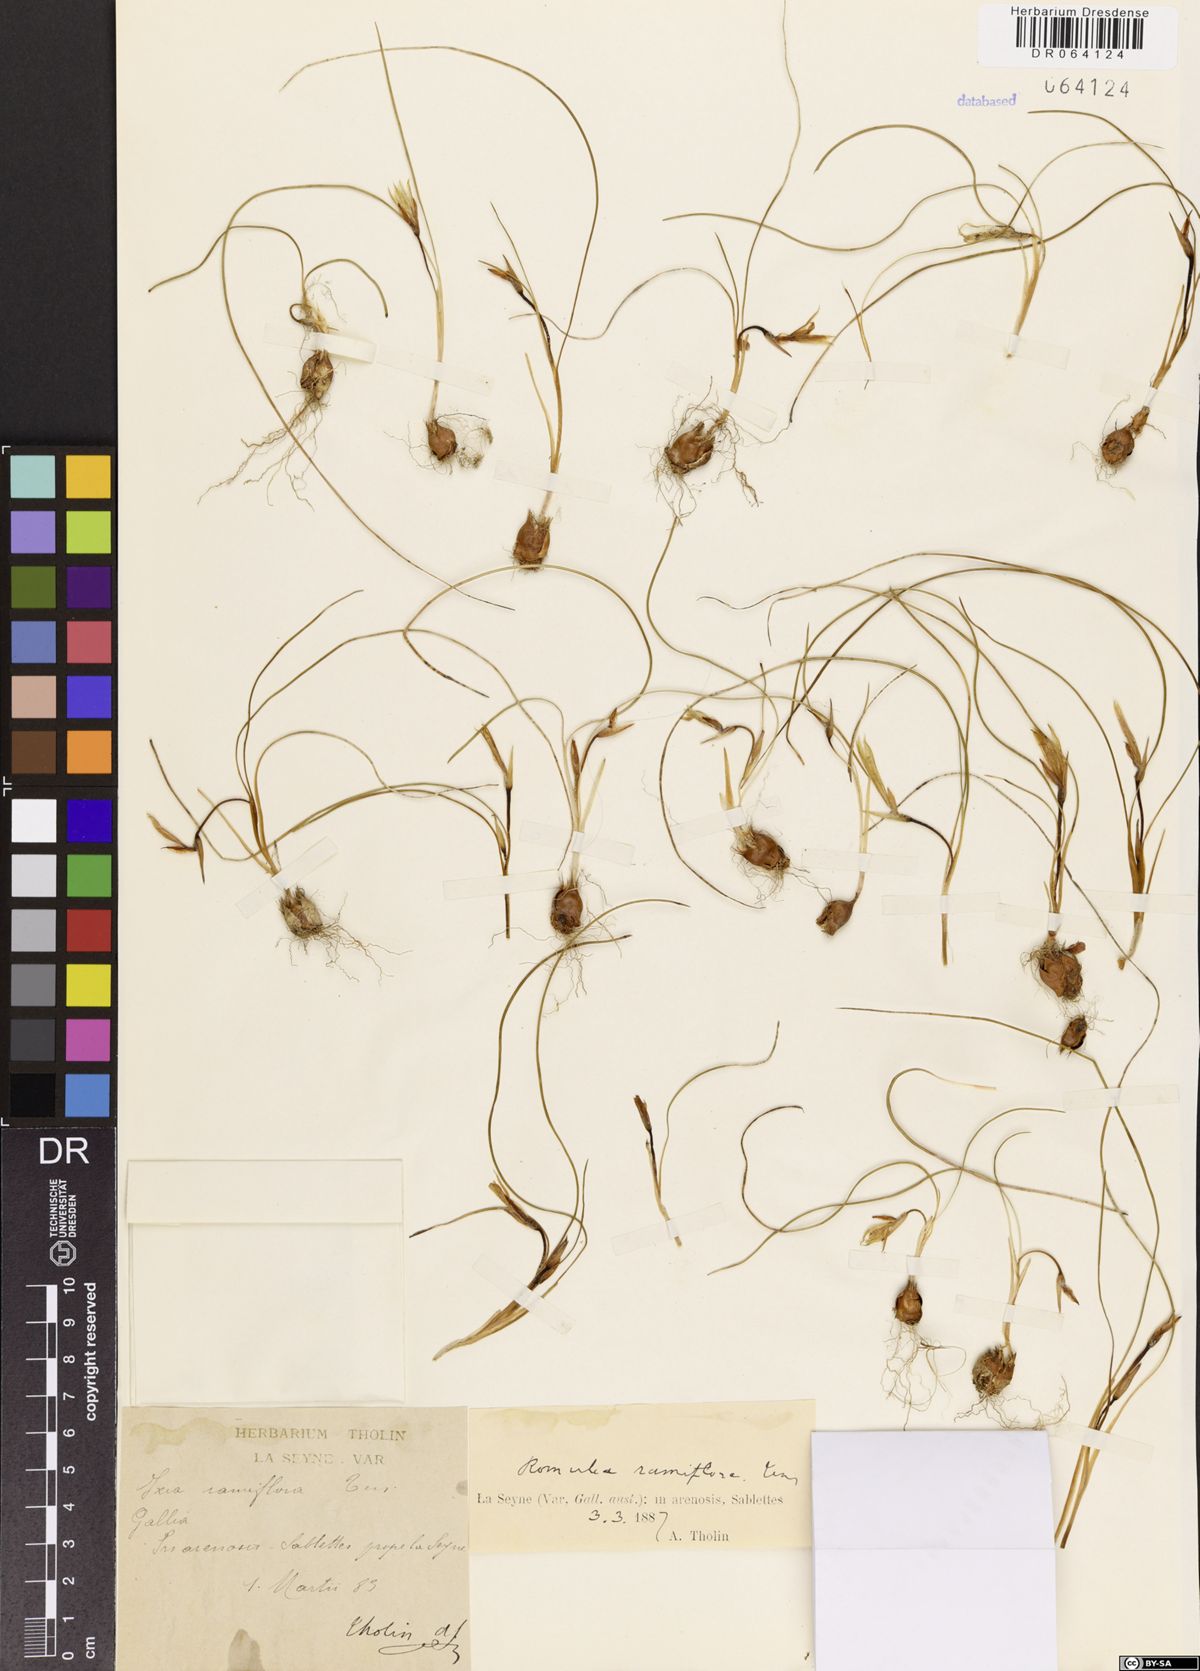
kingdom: Plantae
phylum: Tracheophyta
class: Liliopsida
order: Asparagales
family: Iridaceae
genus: Romulea
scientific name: Romulea ramiflora
